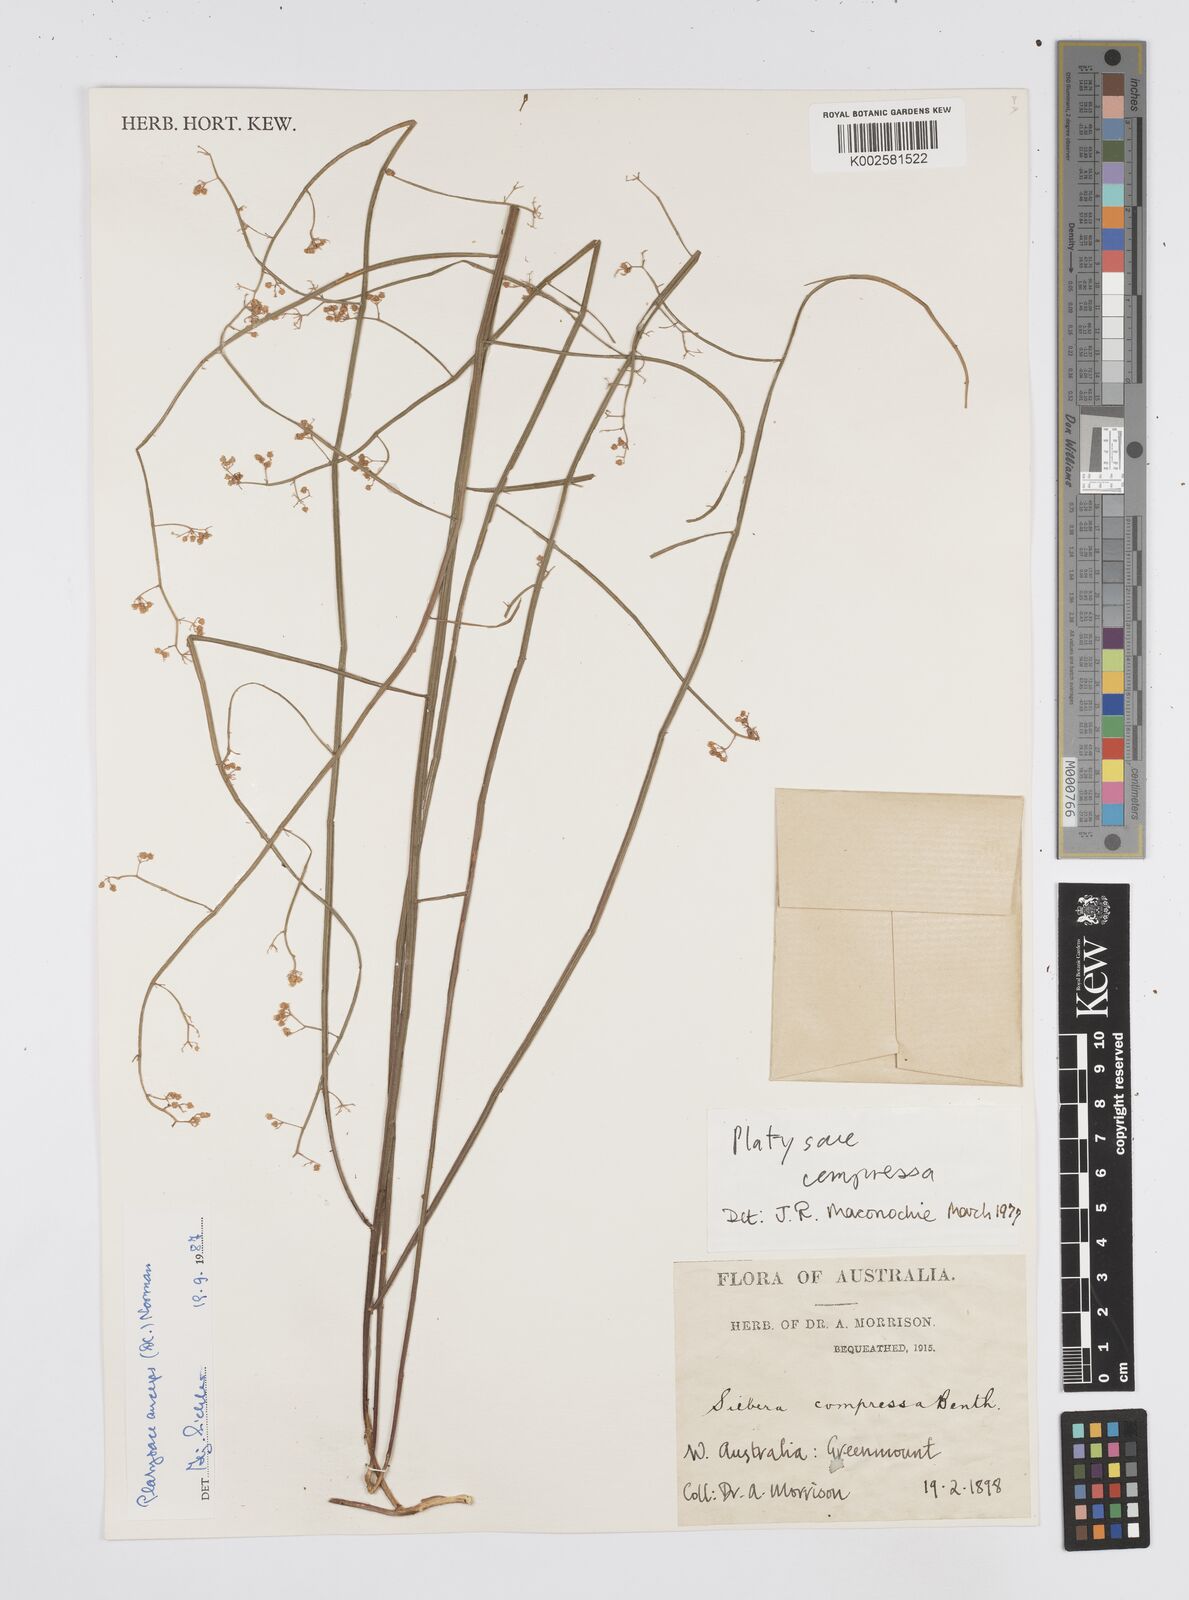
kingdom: Plantae
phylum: Tracheophyta
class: Magnoliopsida
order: Apiales
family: Apiaceae
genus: Centella
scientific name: Centella
